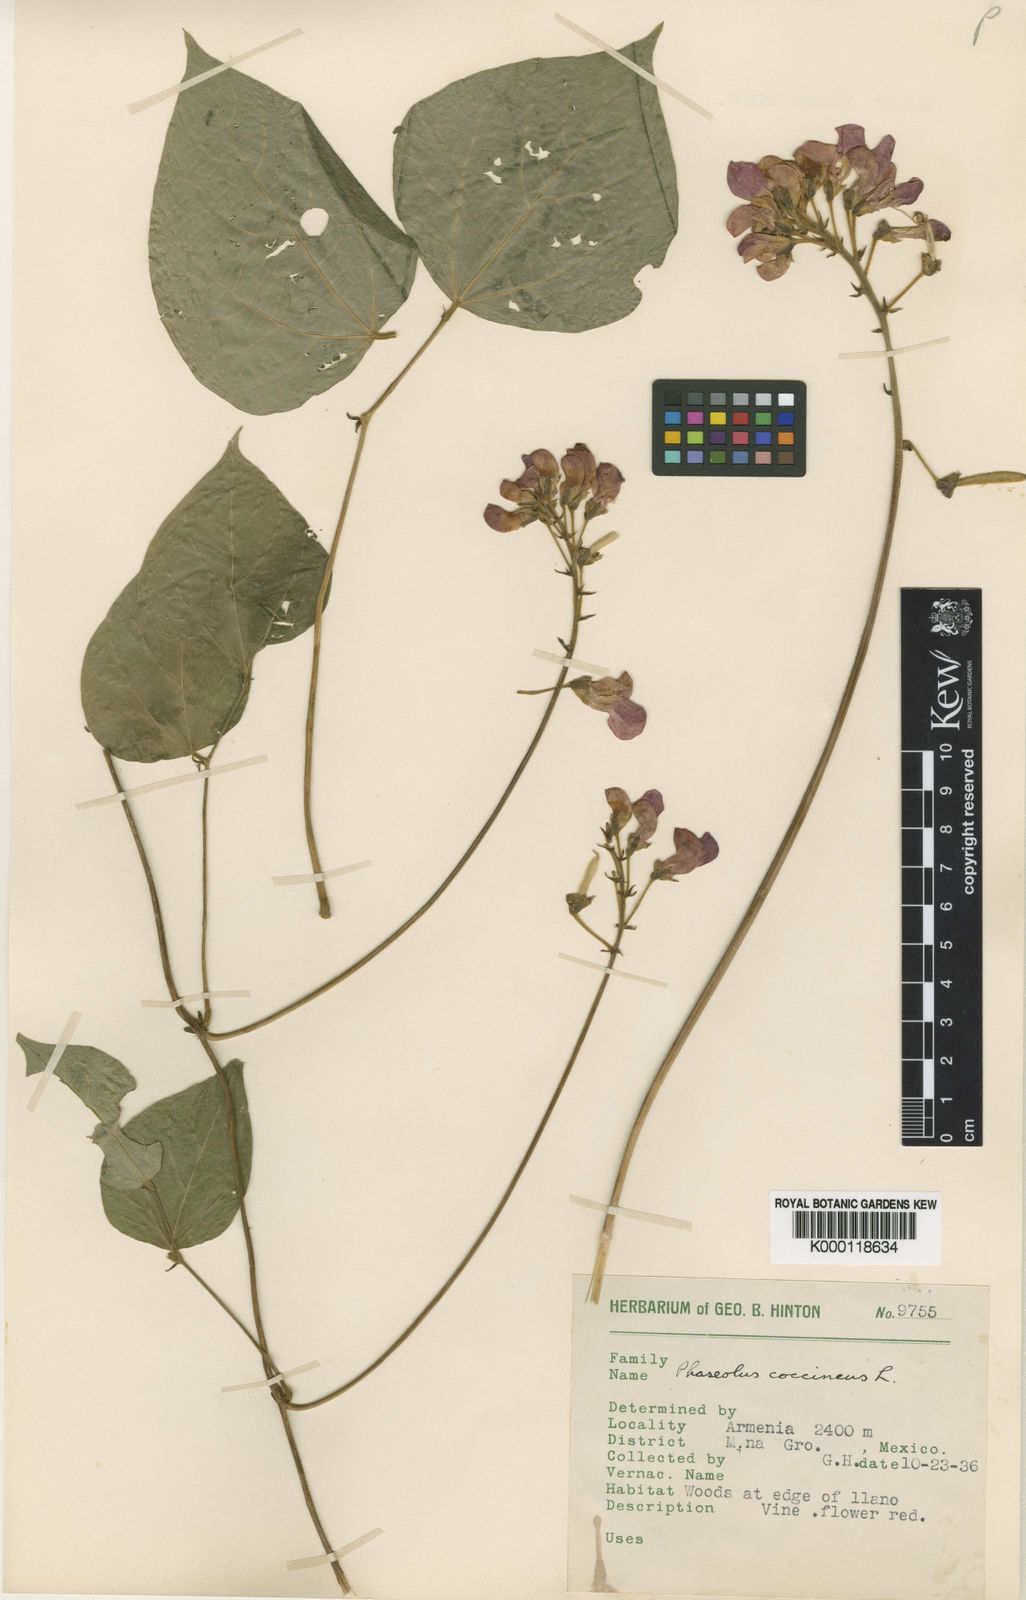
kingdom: Plantae
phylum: Tracheophyta
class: Magnoliopsida
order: Fabales
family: Fabaceae
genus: Phaseolus
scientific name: Phaseolus coccineus
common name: Runner bean
